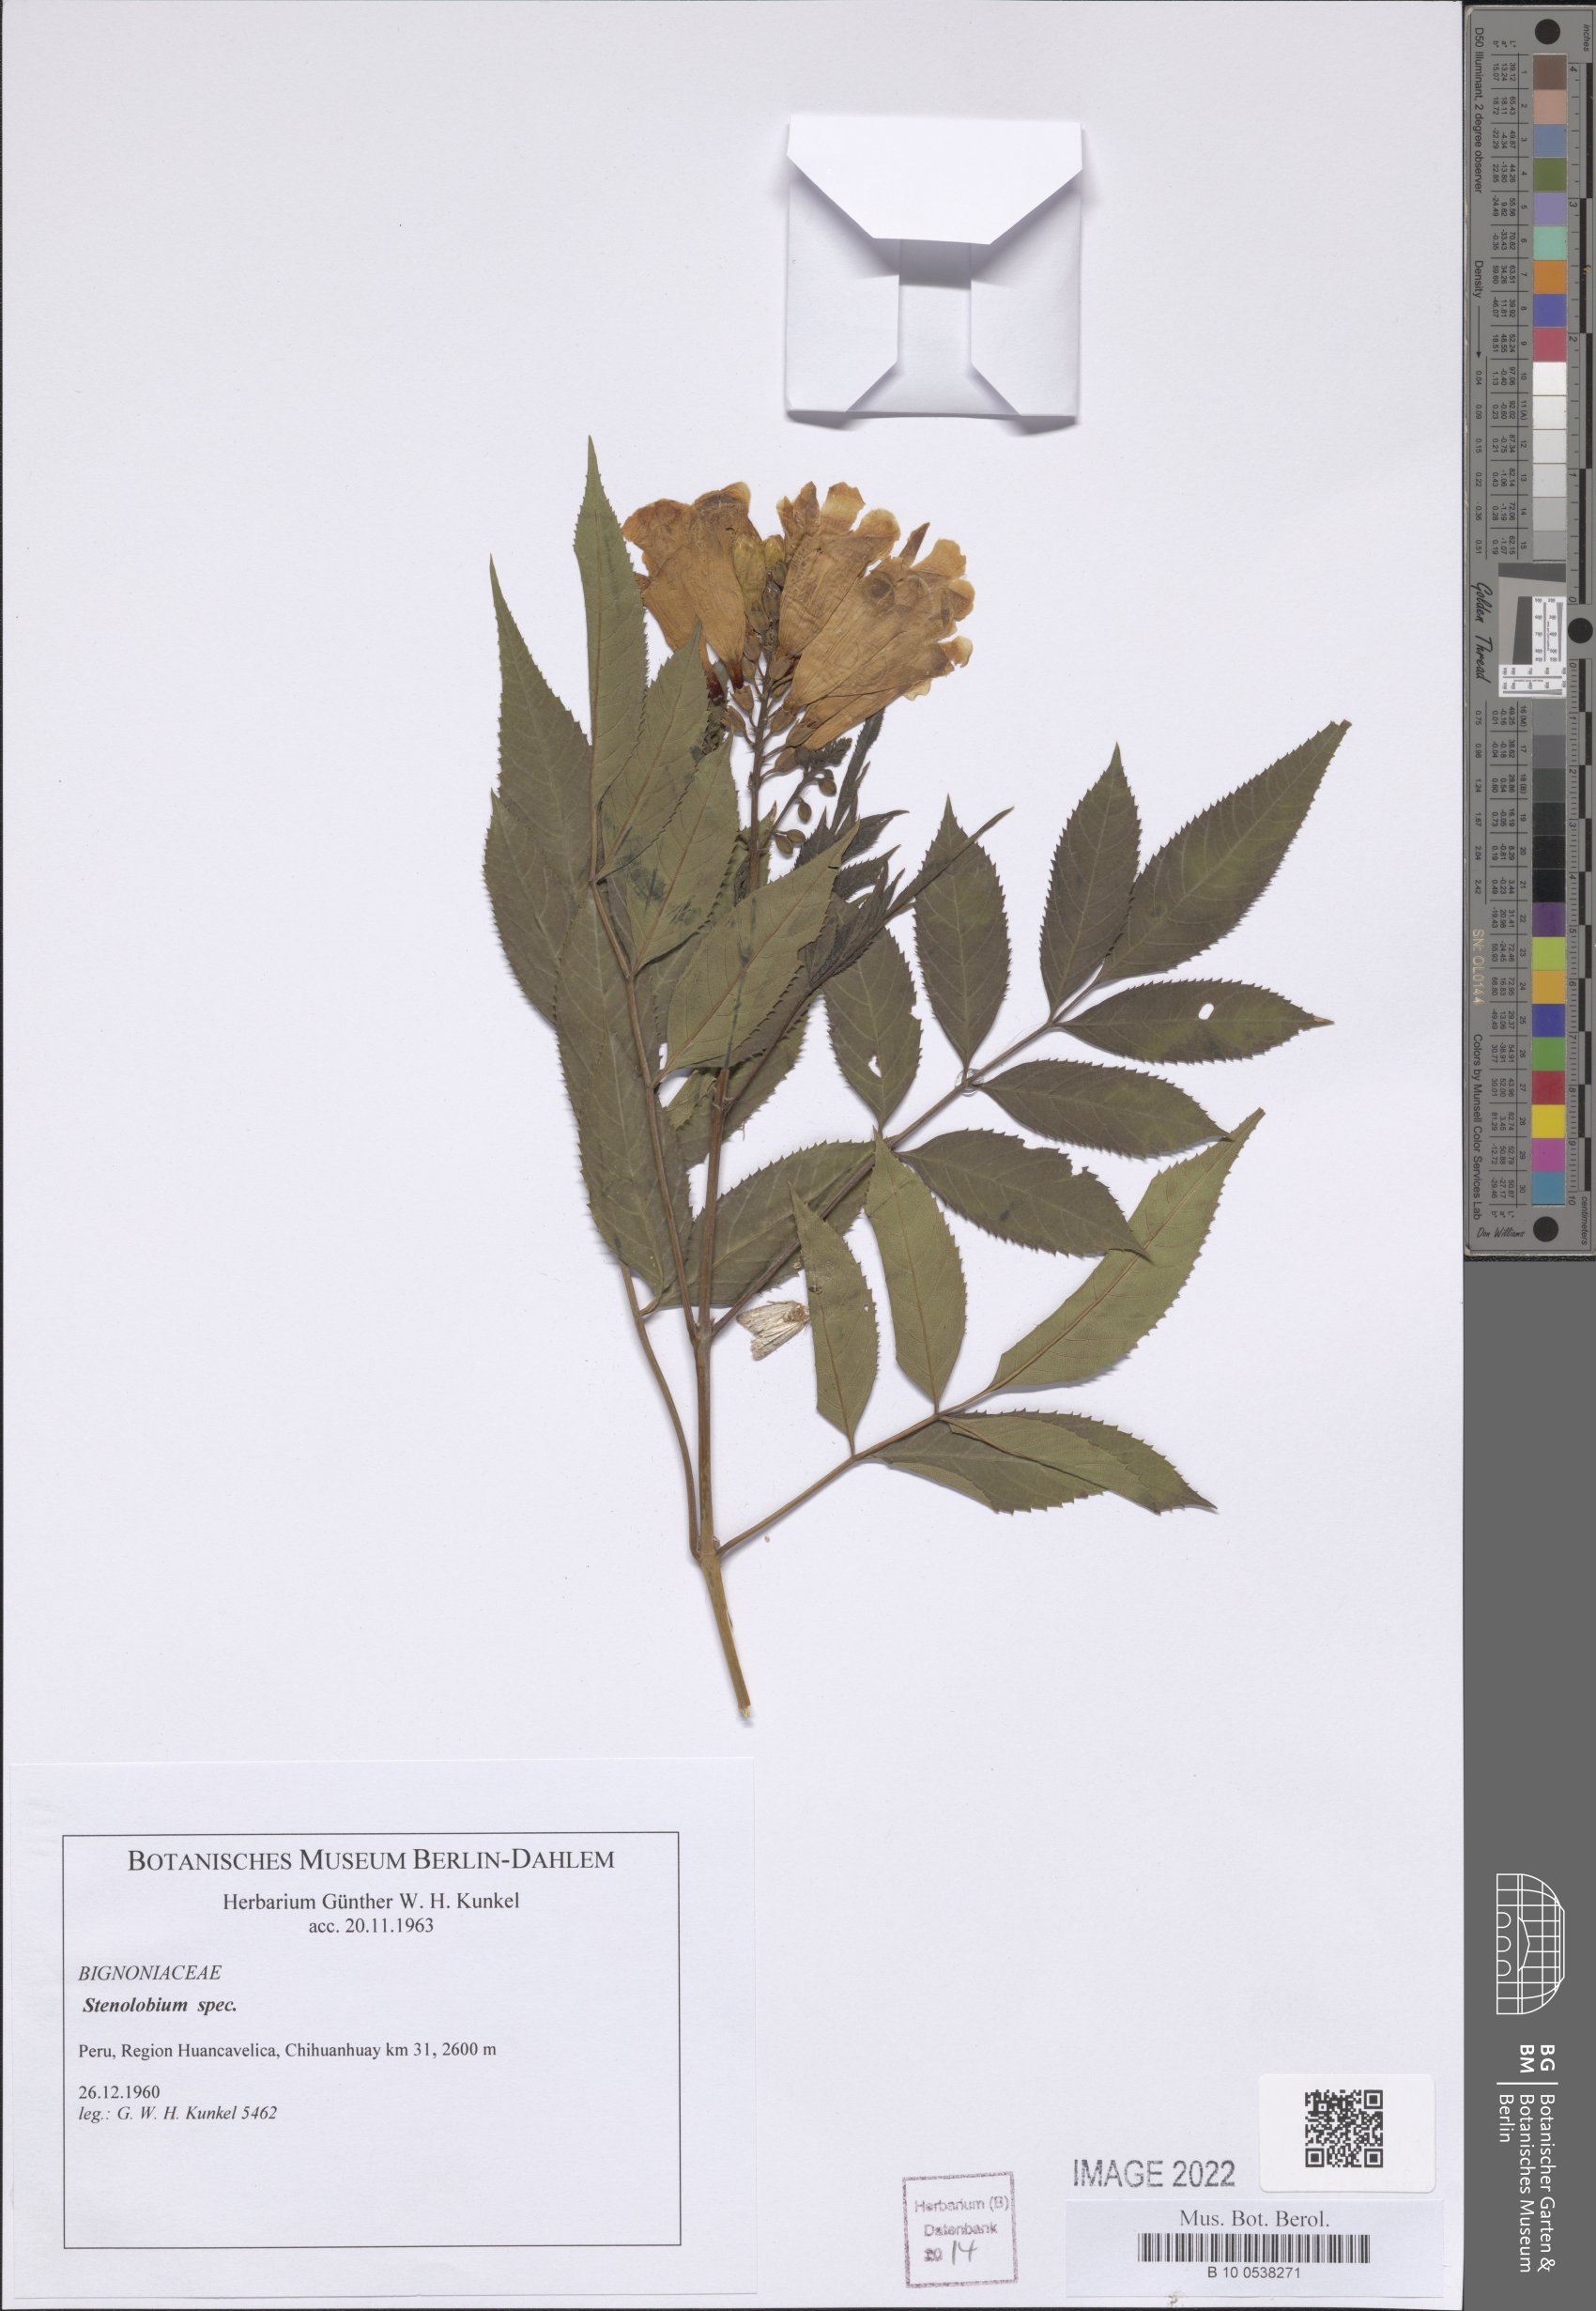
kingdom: Plantae
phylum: Tracheophyta
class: Magnoliopsida
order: Lamiales
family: Bignoniaceae
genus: Tecoma
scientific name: Tecoma
